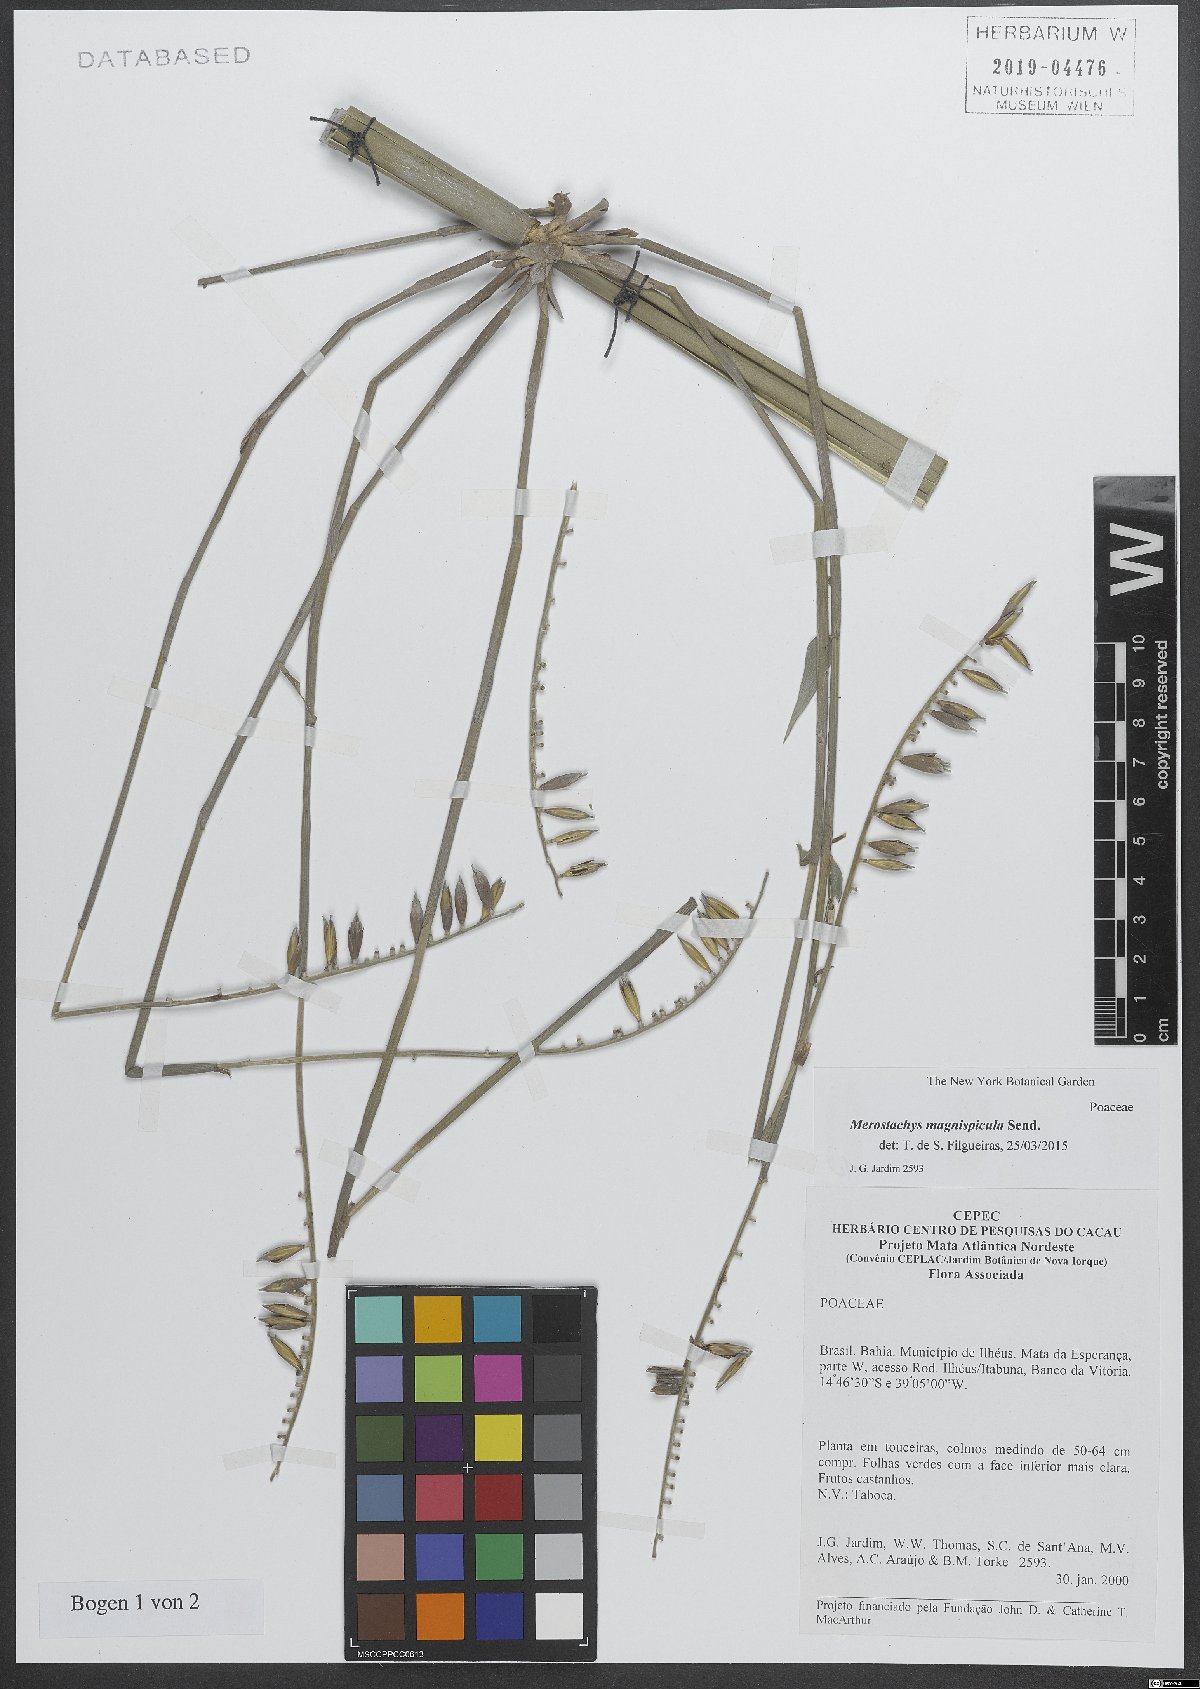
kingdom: Plantae
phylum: Tracheophyta
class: Liliopsida
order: Poales
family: Poaceae
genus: Merostachys
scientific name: Merostachys magnispicula
